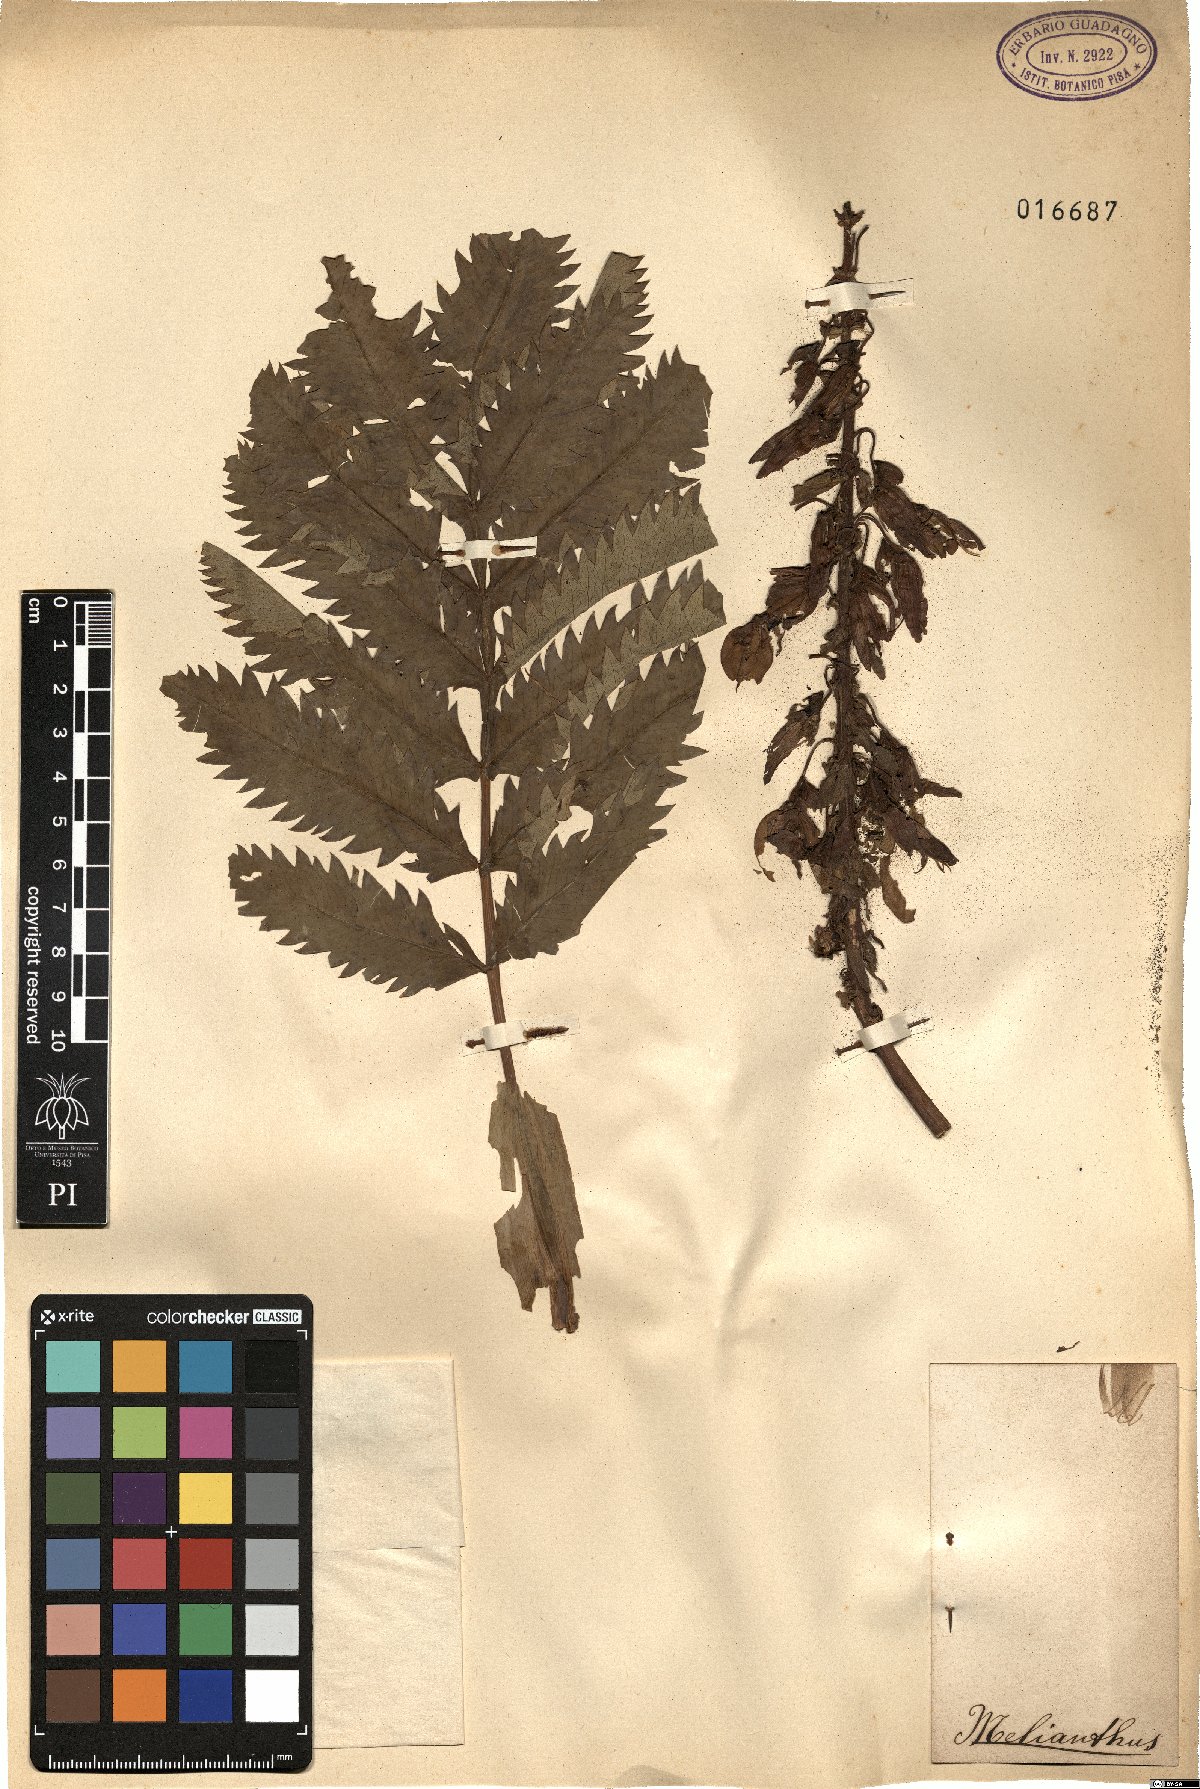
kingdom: Plantae
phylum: Tracheophyta
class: Magnoliopsida
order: Geraniales
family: Melianthaceae
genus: Melianthus
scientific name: Melianthus
